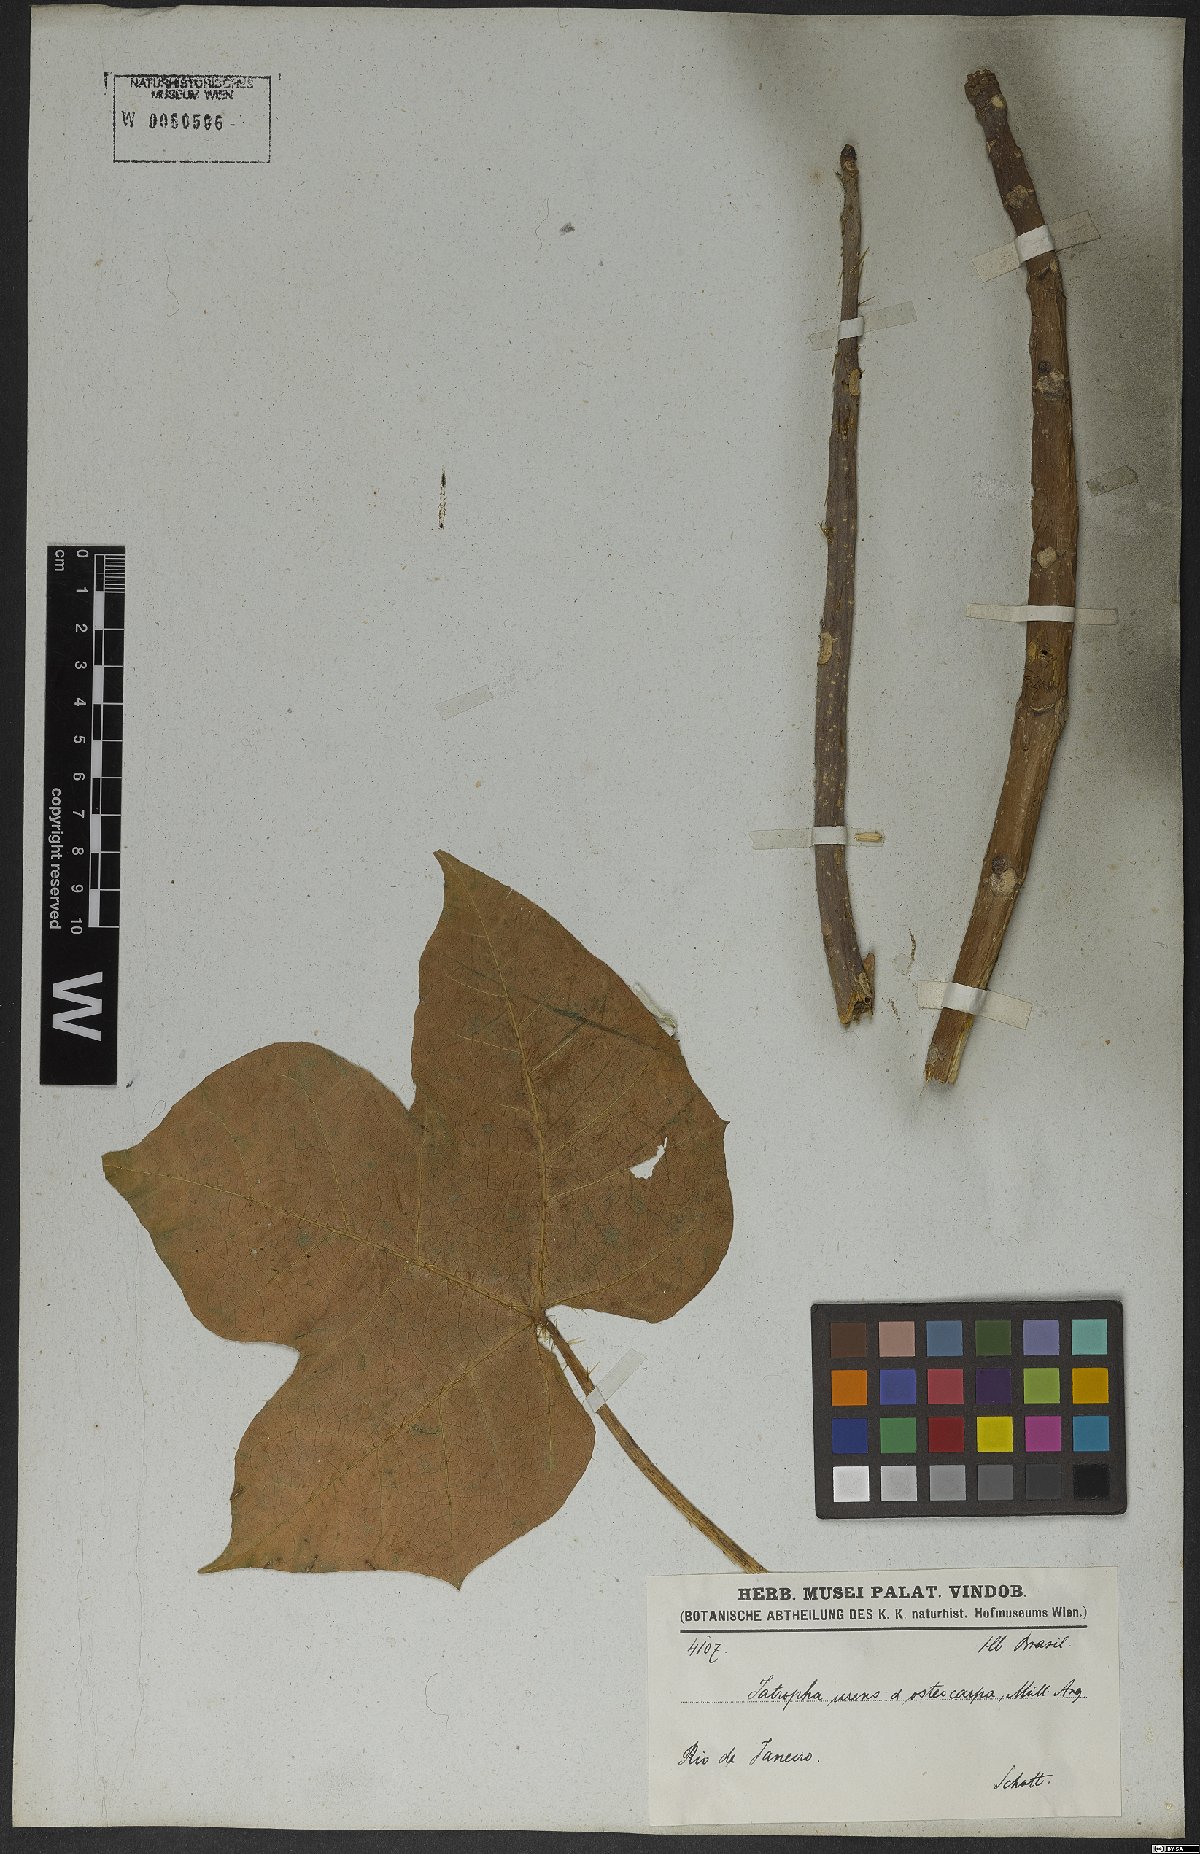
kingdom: Plantae
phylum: Tracheophyta
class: Magnoliopsida
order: Malpighiales
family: Euphorbiaceae
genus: Cnidoscolus
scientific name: Cnidoscolus urens
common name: Bull-nettle
